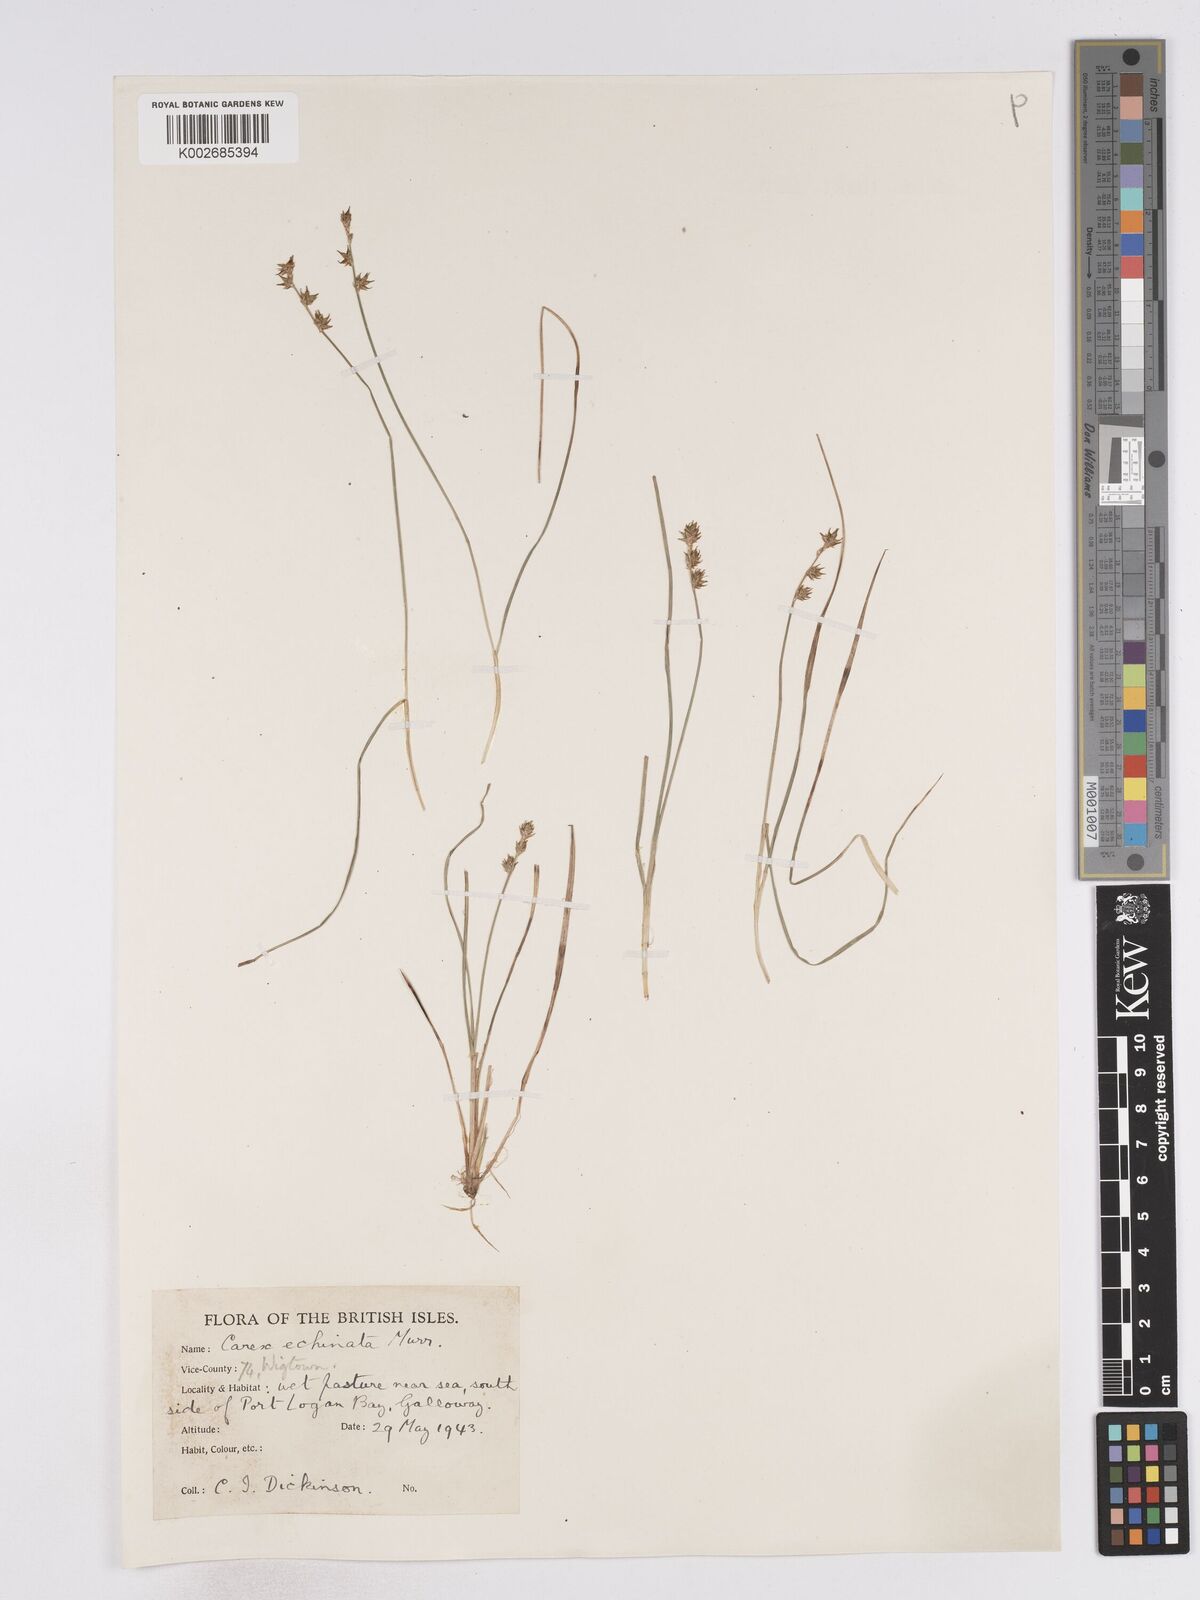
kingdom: Plantae
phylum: Tracheophyta
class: Liliopsida
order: Poales
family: Cyperaceae
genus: Carex
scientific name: Carex echinata
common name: Star sedge
